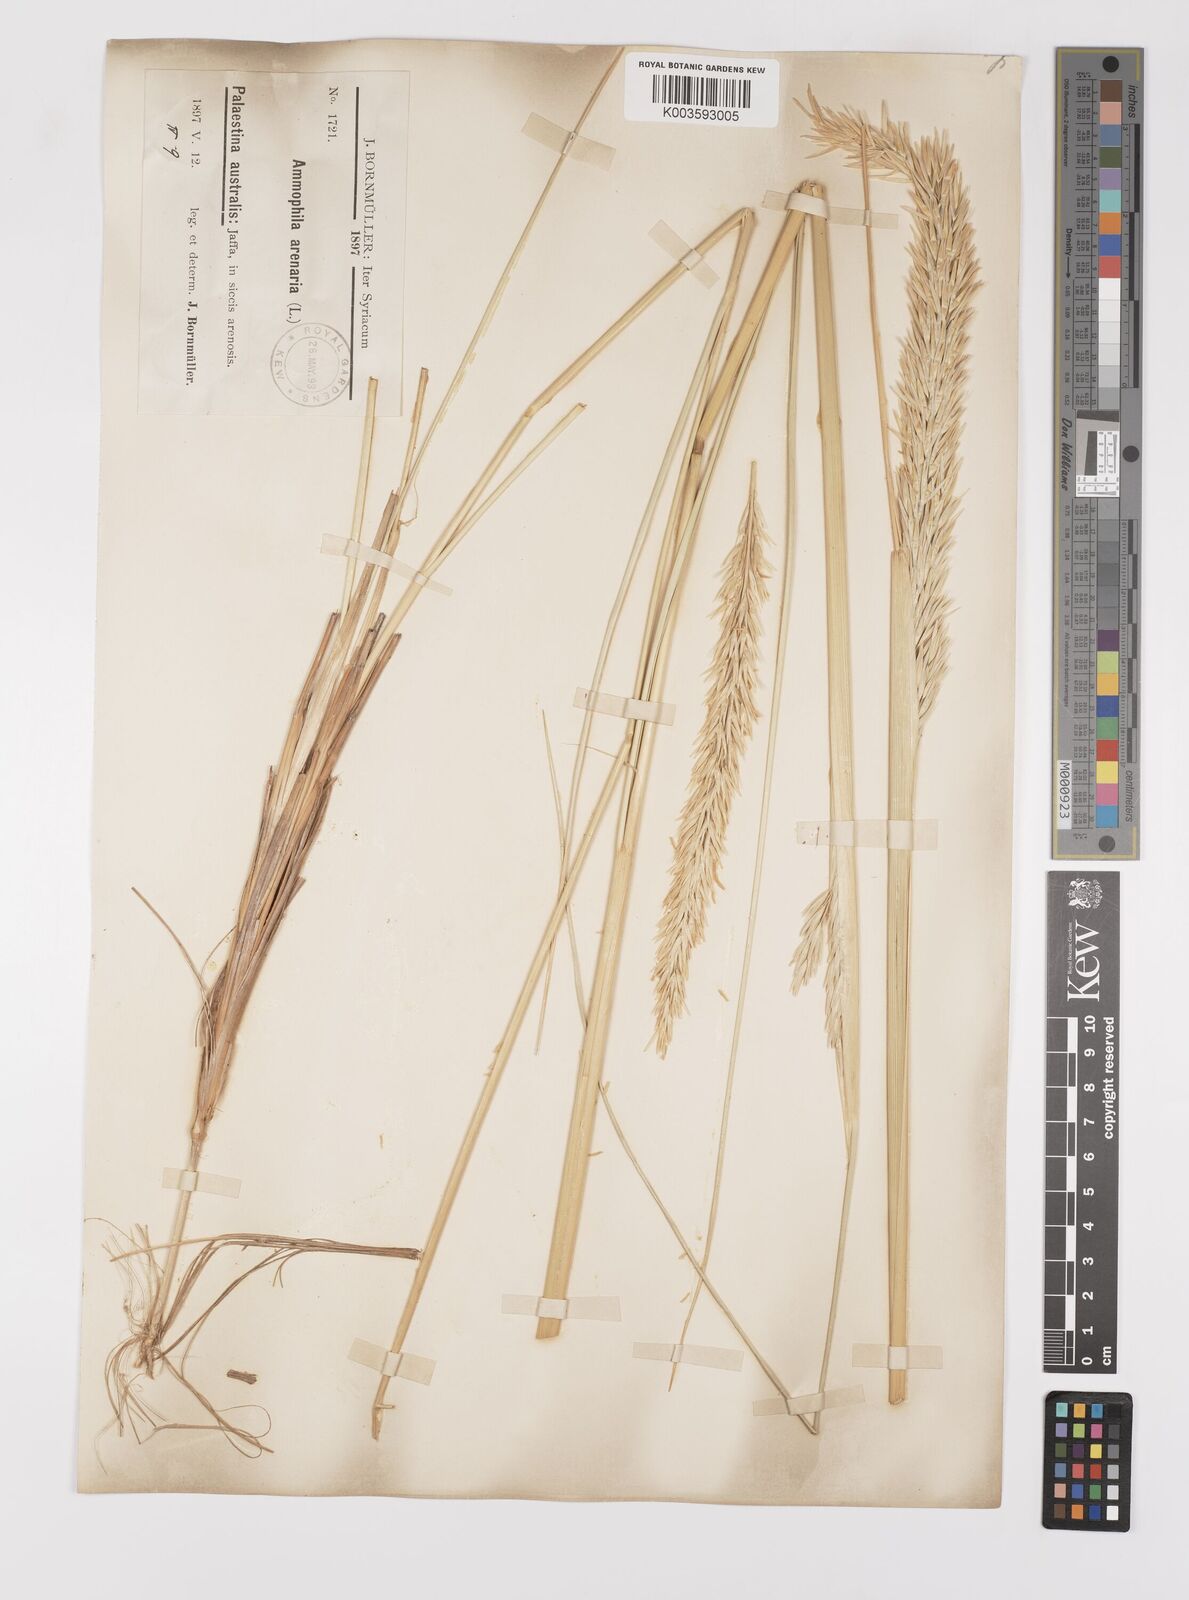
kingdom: Plantae
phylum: Tracheophyta
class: Liliopsida
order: Poales
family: Poaceae
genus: Calamagrostis
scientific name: Calamagrostis arenaria
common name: European beachgrass
